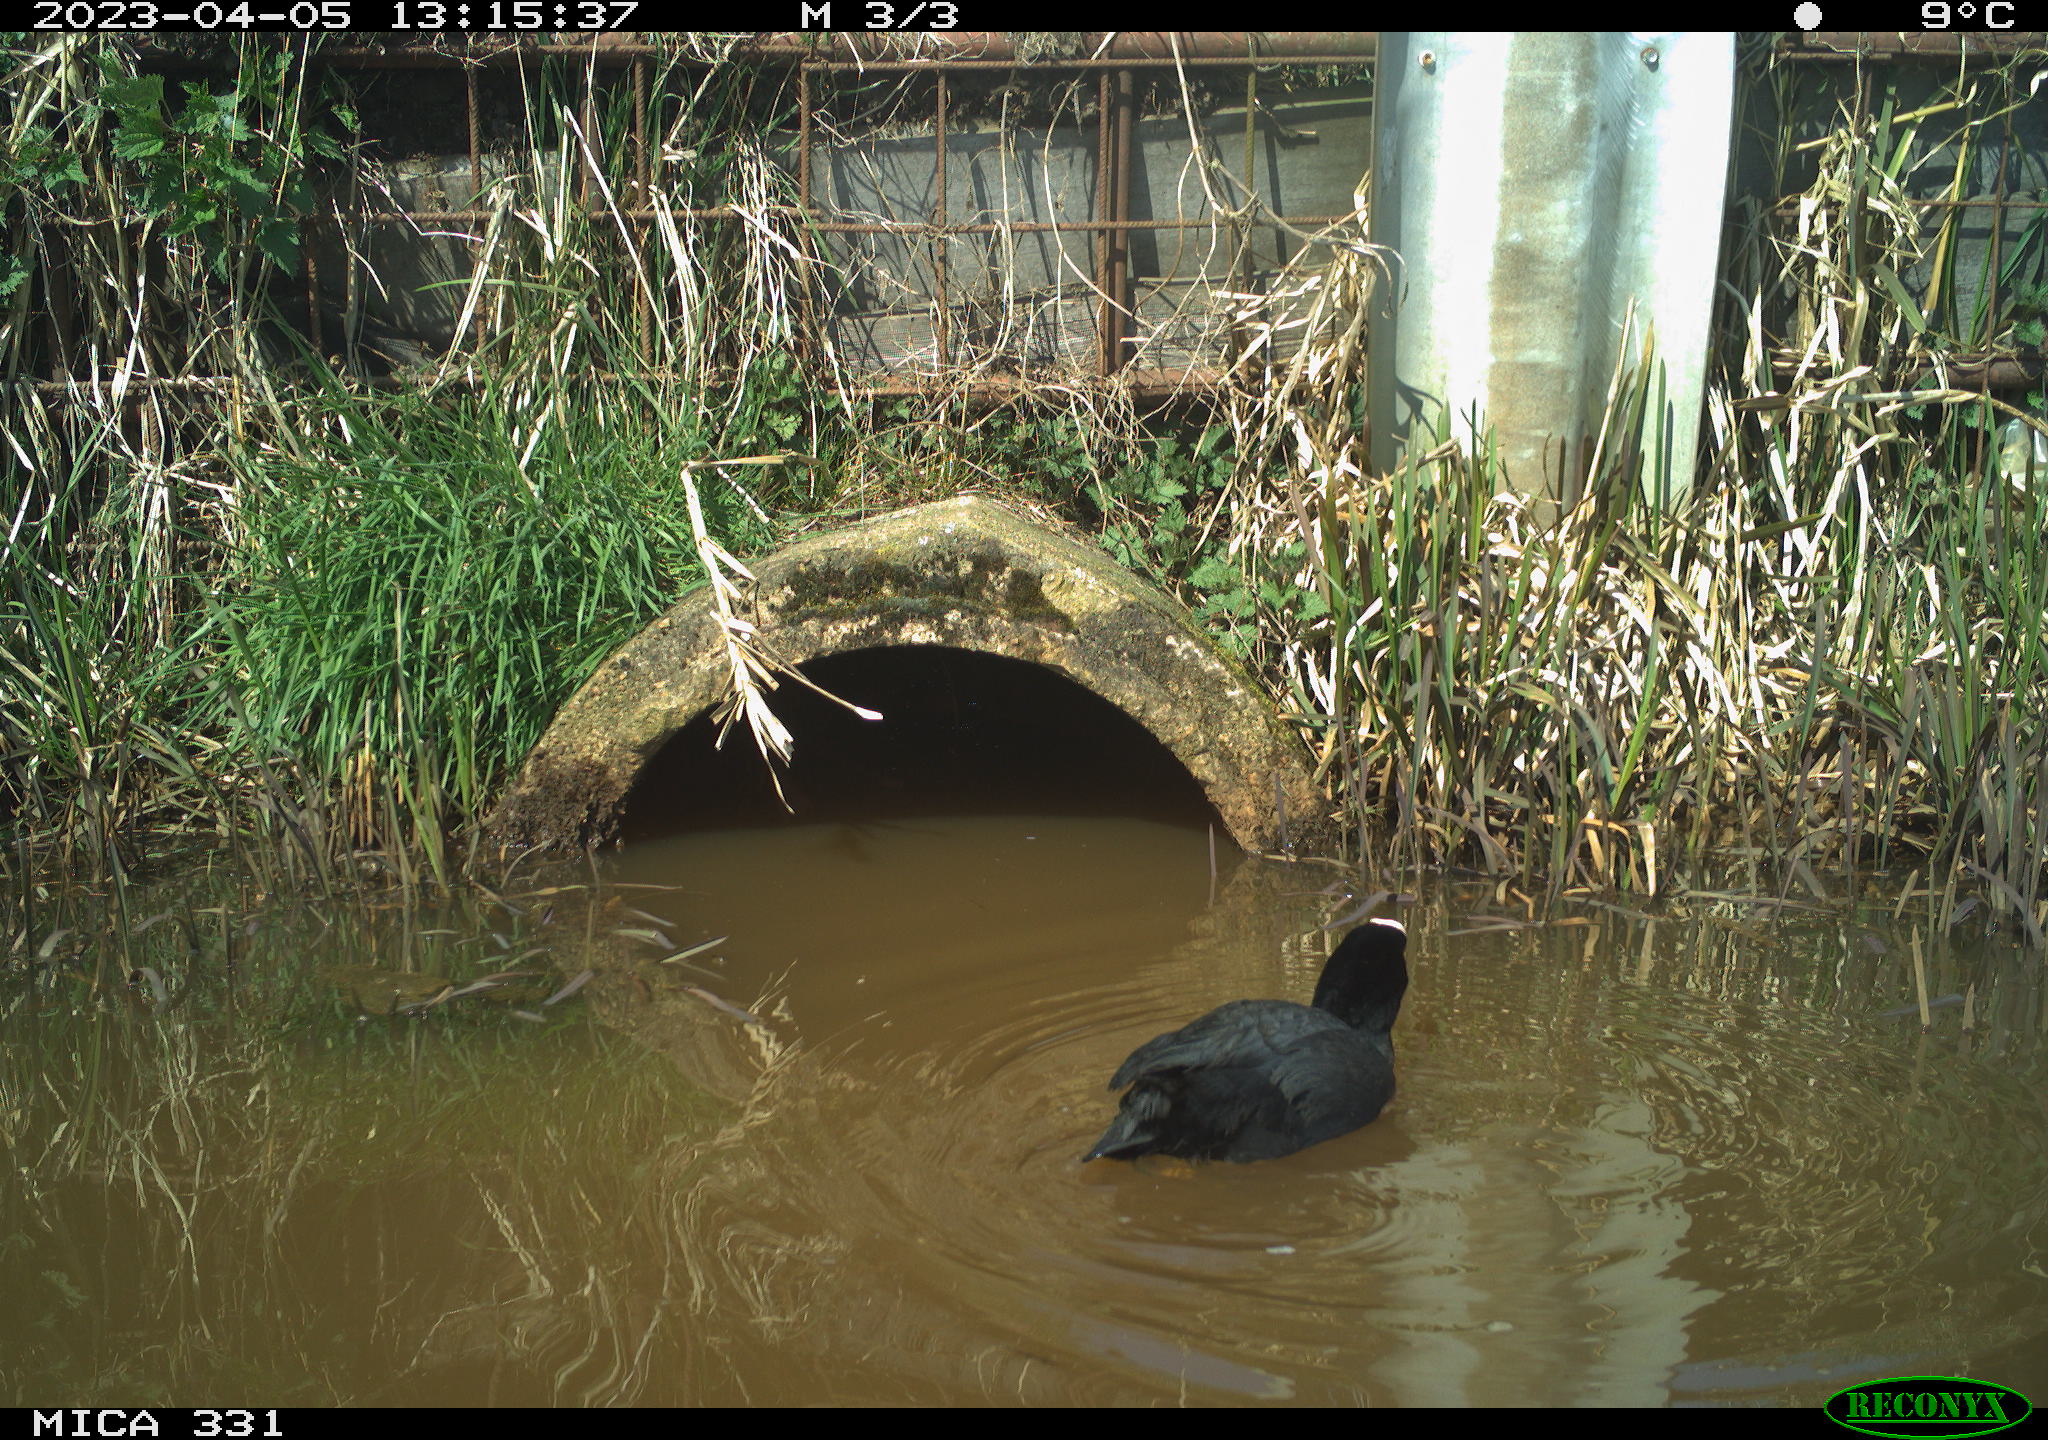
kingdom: Animalia
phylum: Chordata
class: Aves
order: Gruiformes
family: Rallidae
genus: Fulica
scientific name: Fulica atra
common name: Eurasian coot
